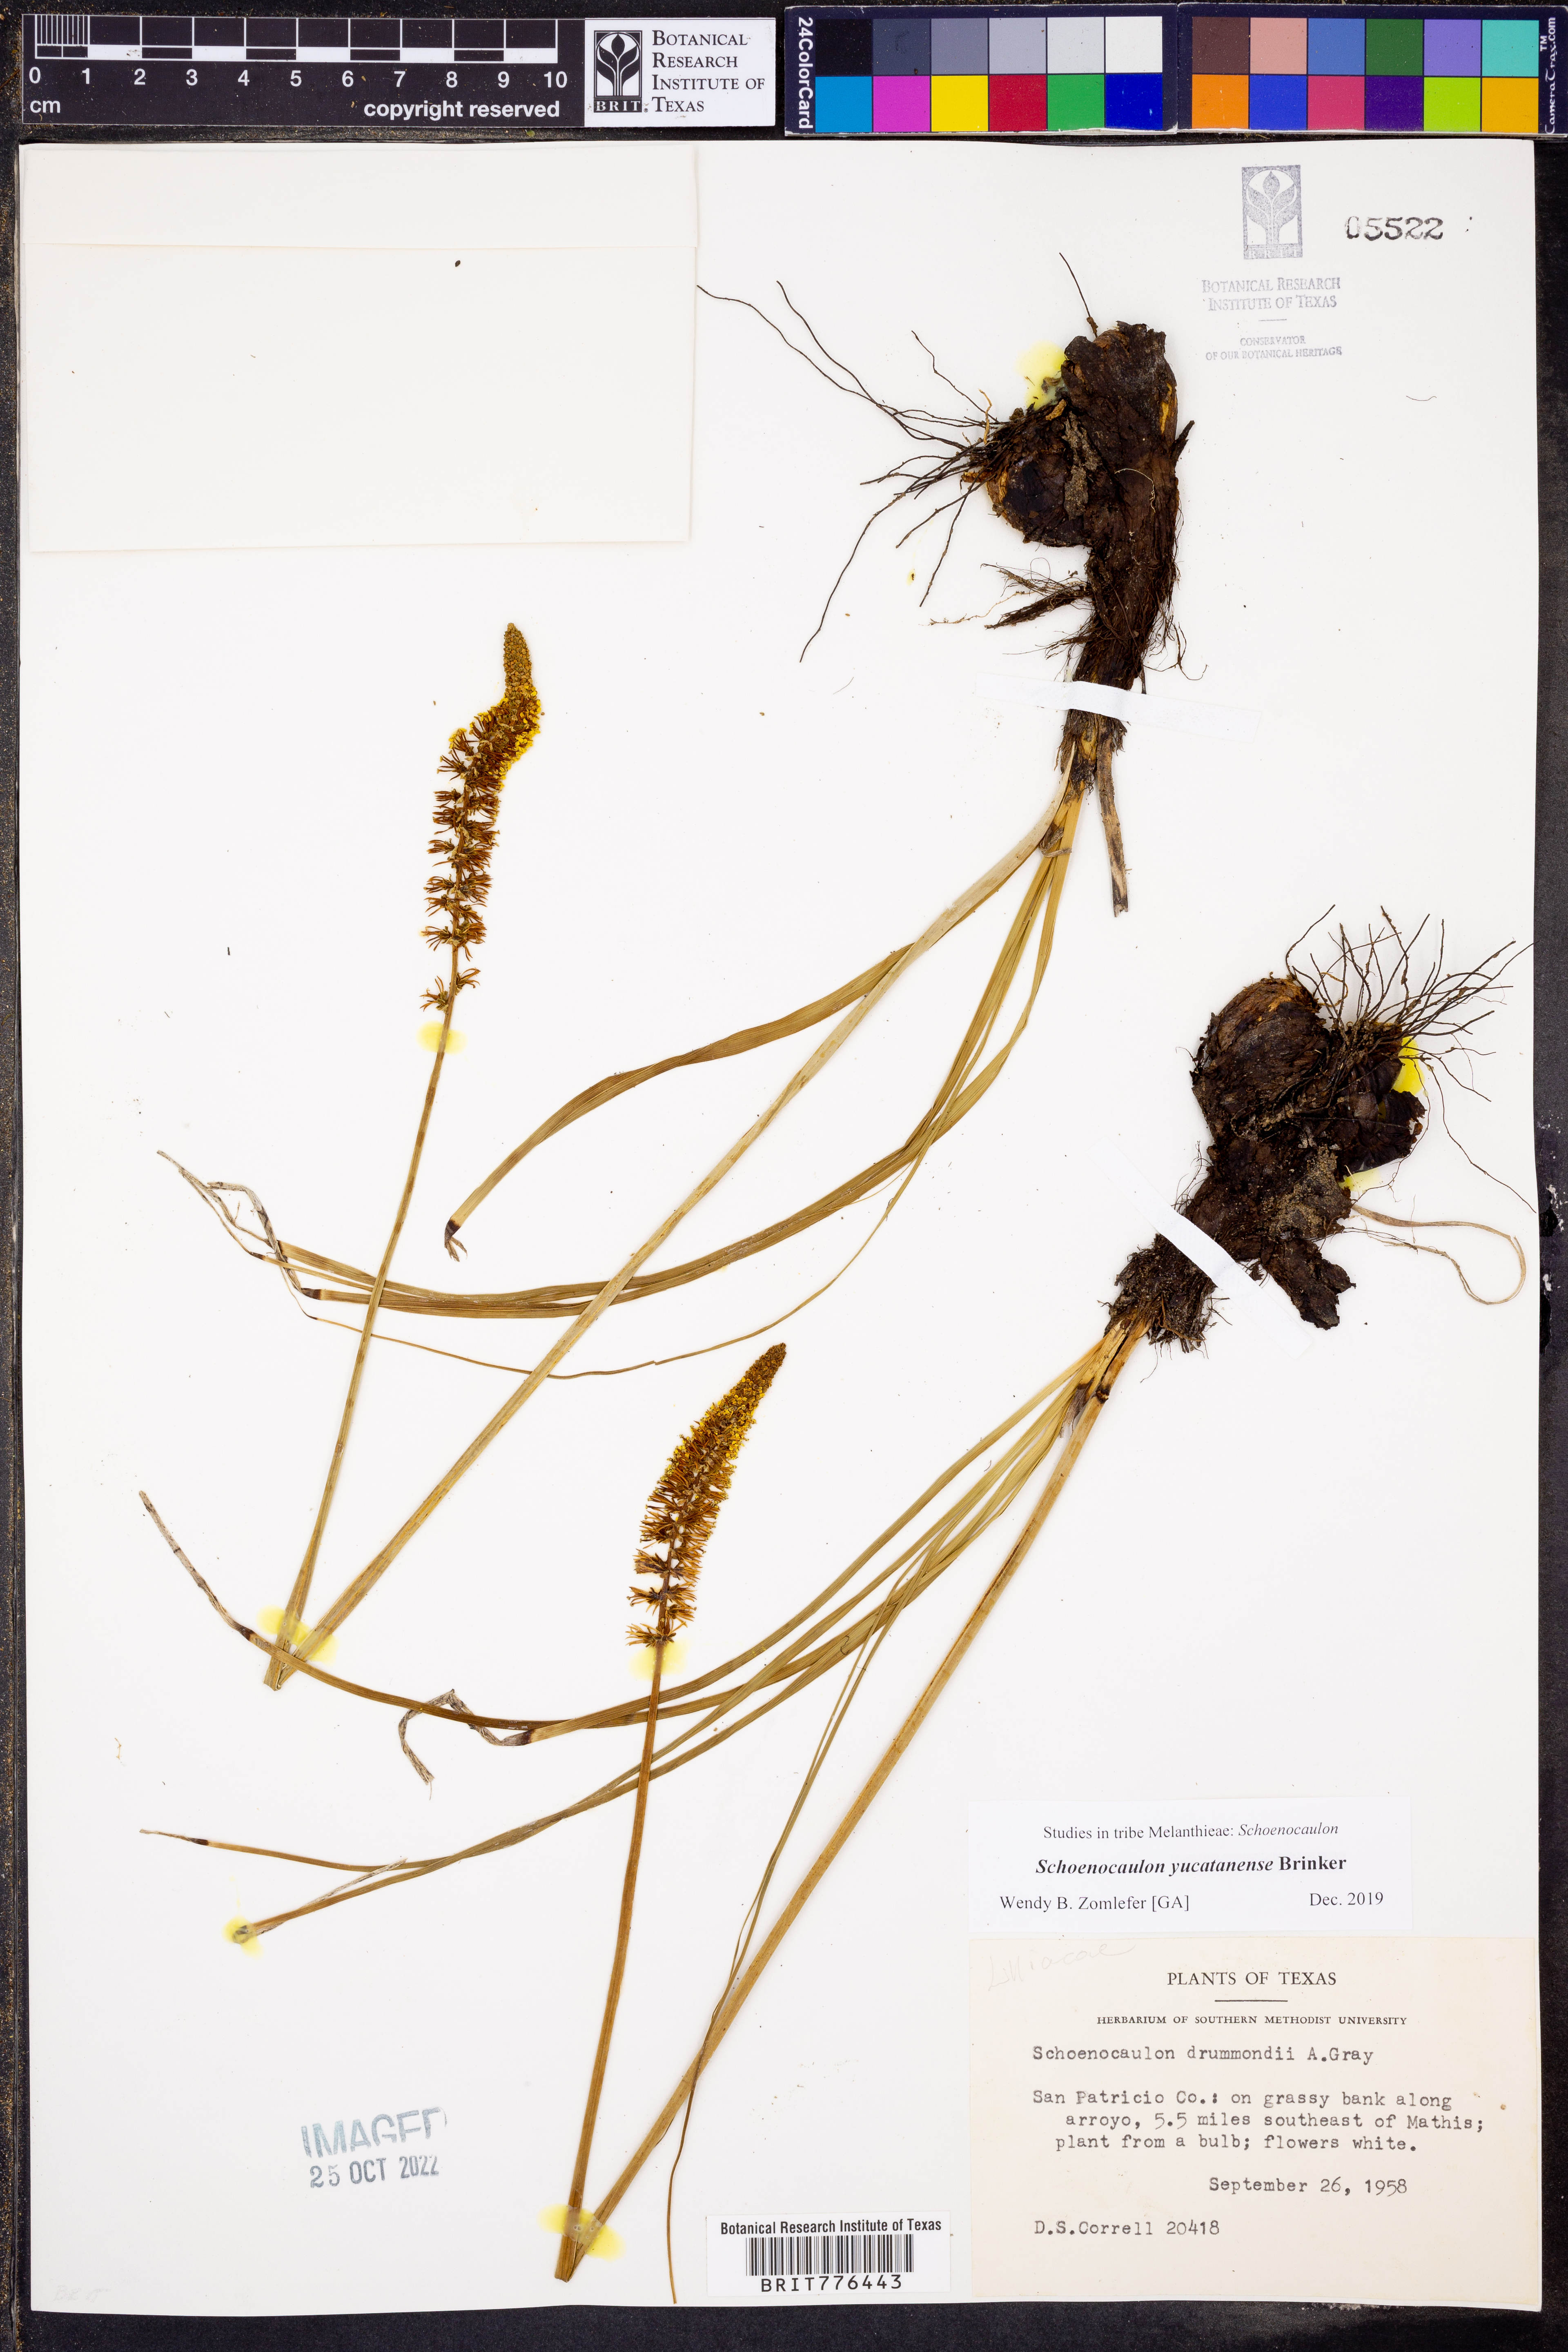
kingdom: Plantae
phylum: Tracheophyta
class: Liliopsida
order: Liliales
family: Melanthiaceae
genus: Schoenocaulon
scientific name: Schoenocaulon ghiesbreghtii
